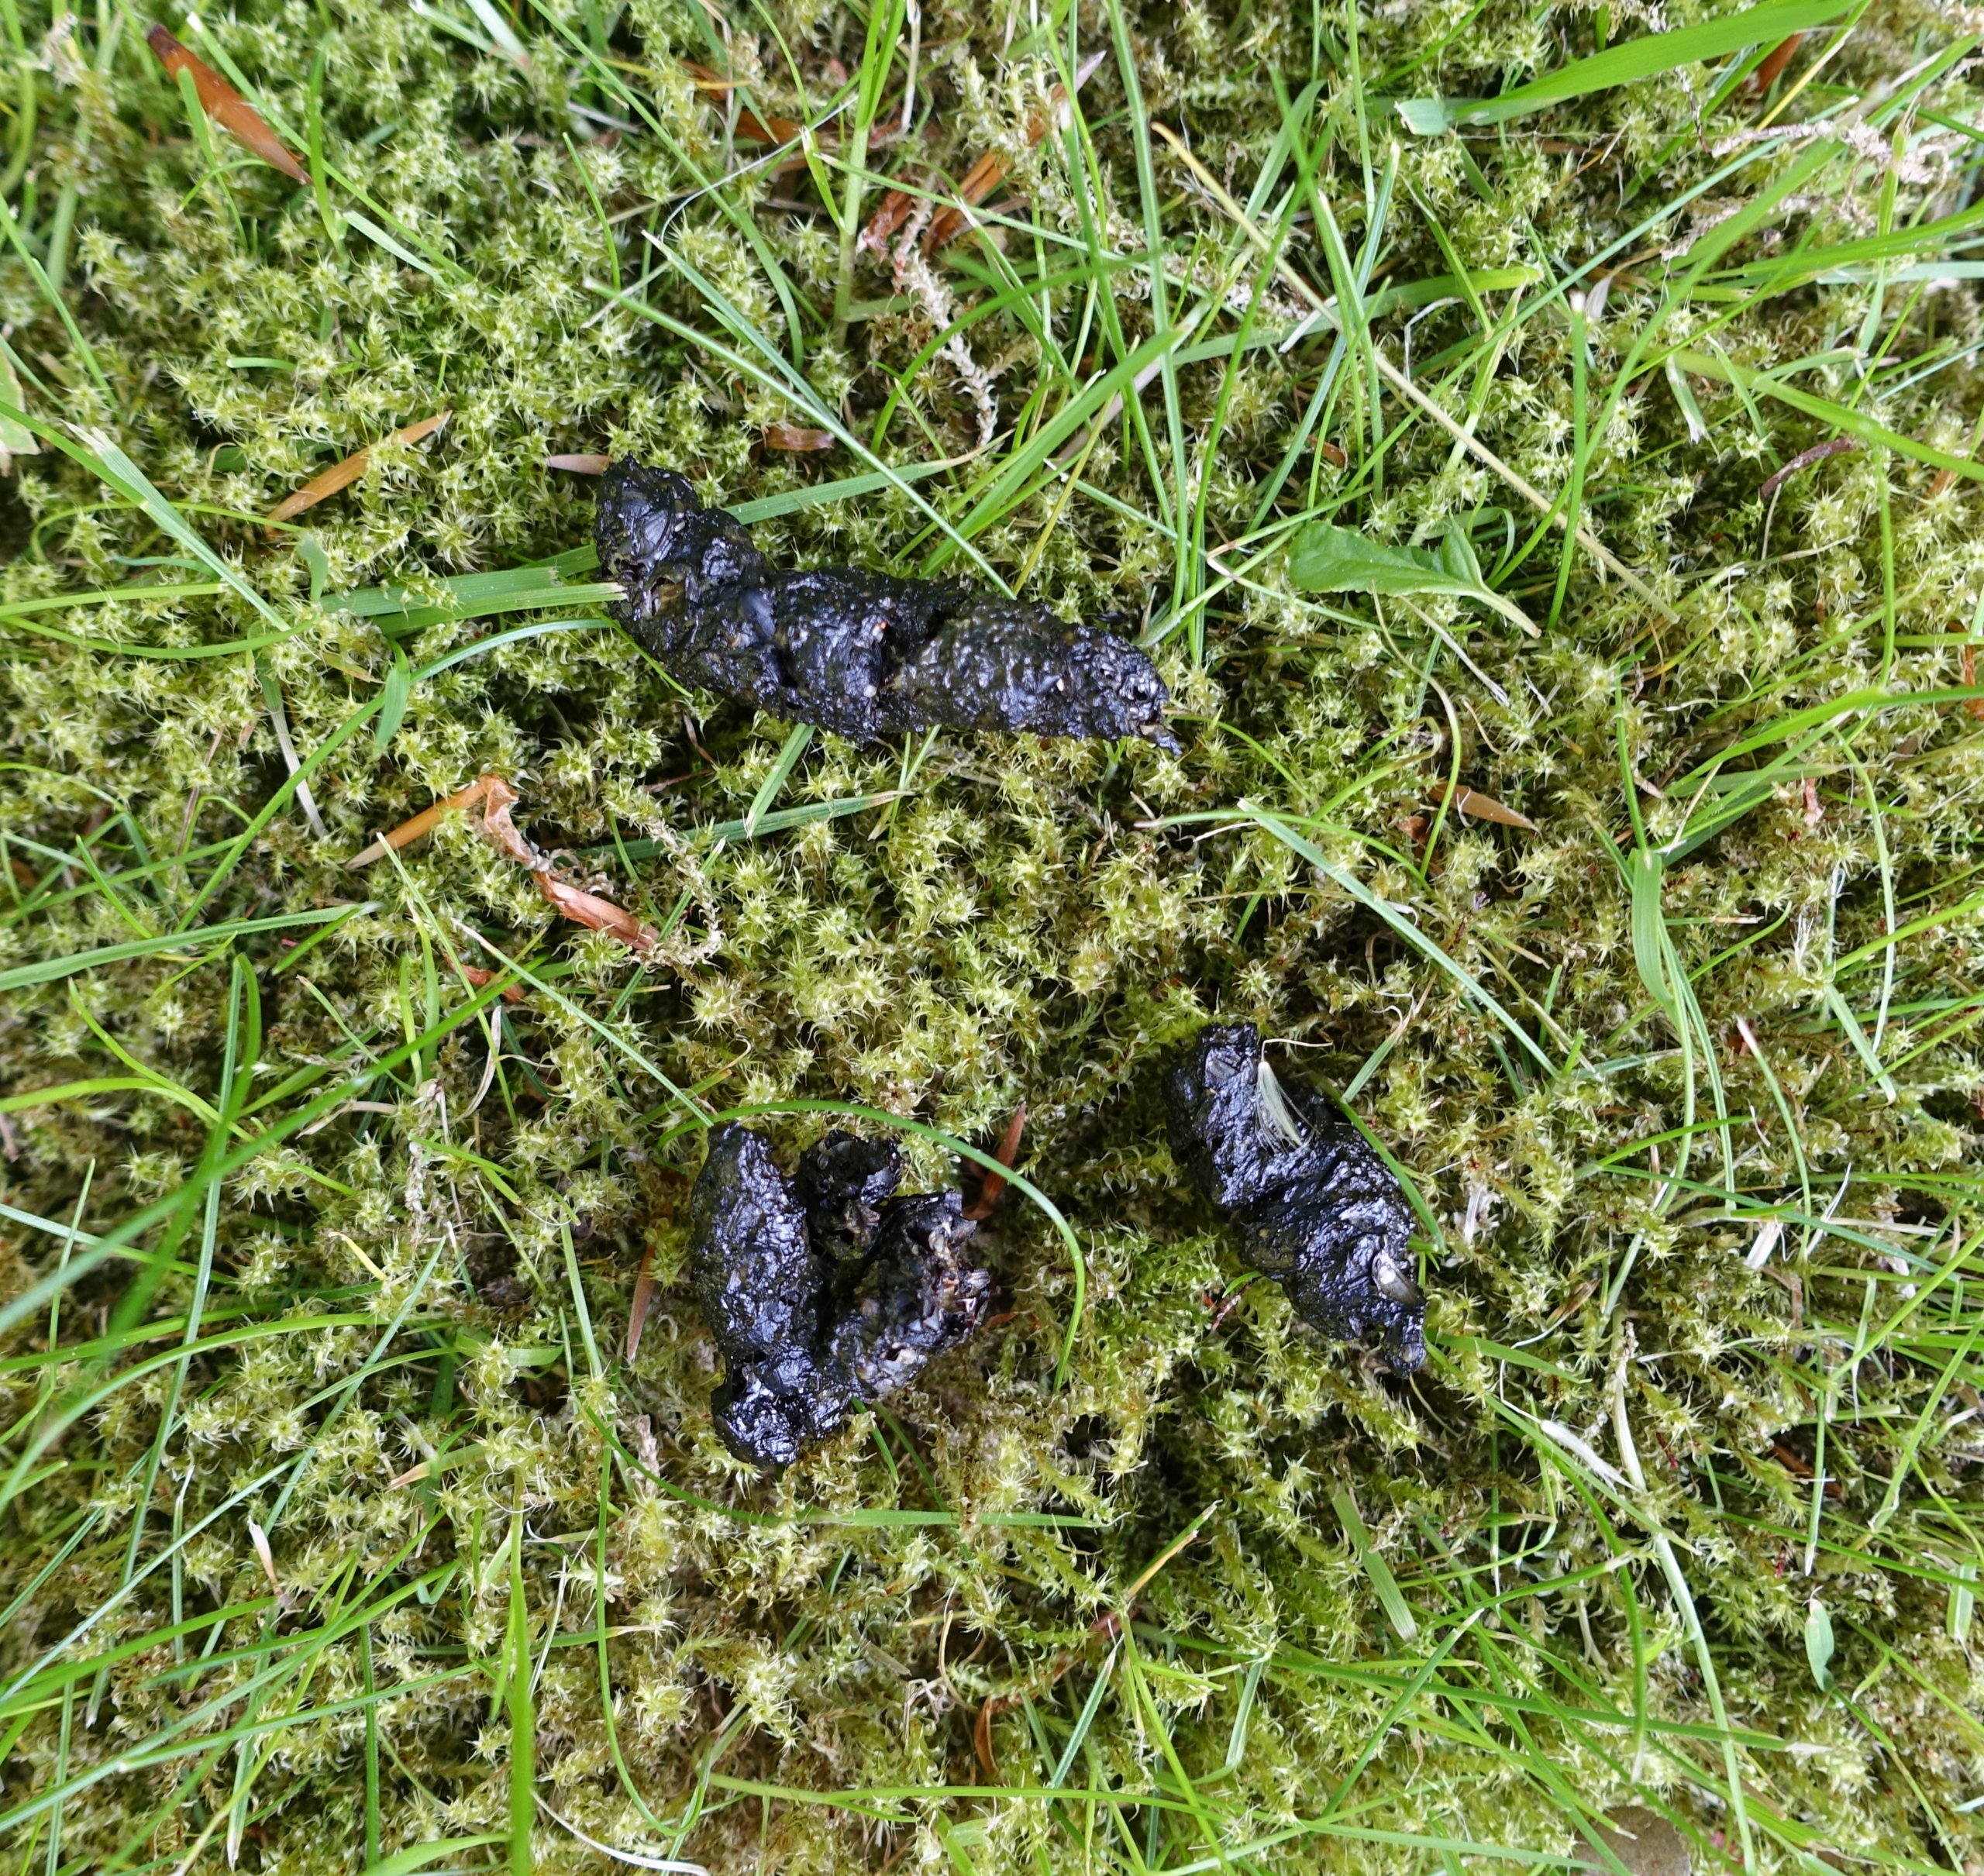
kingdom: Animalia
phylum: Chordata
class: Mammalia
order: Erinaceomorpha
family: Erinaceidae
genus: Erinaceus
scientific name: Erinaceus europaeus
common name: Pindsvin
